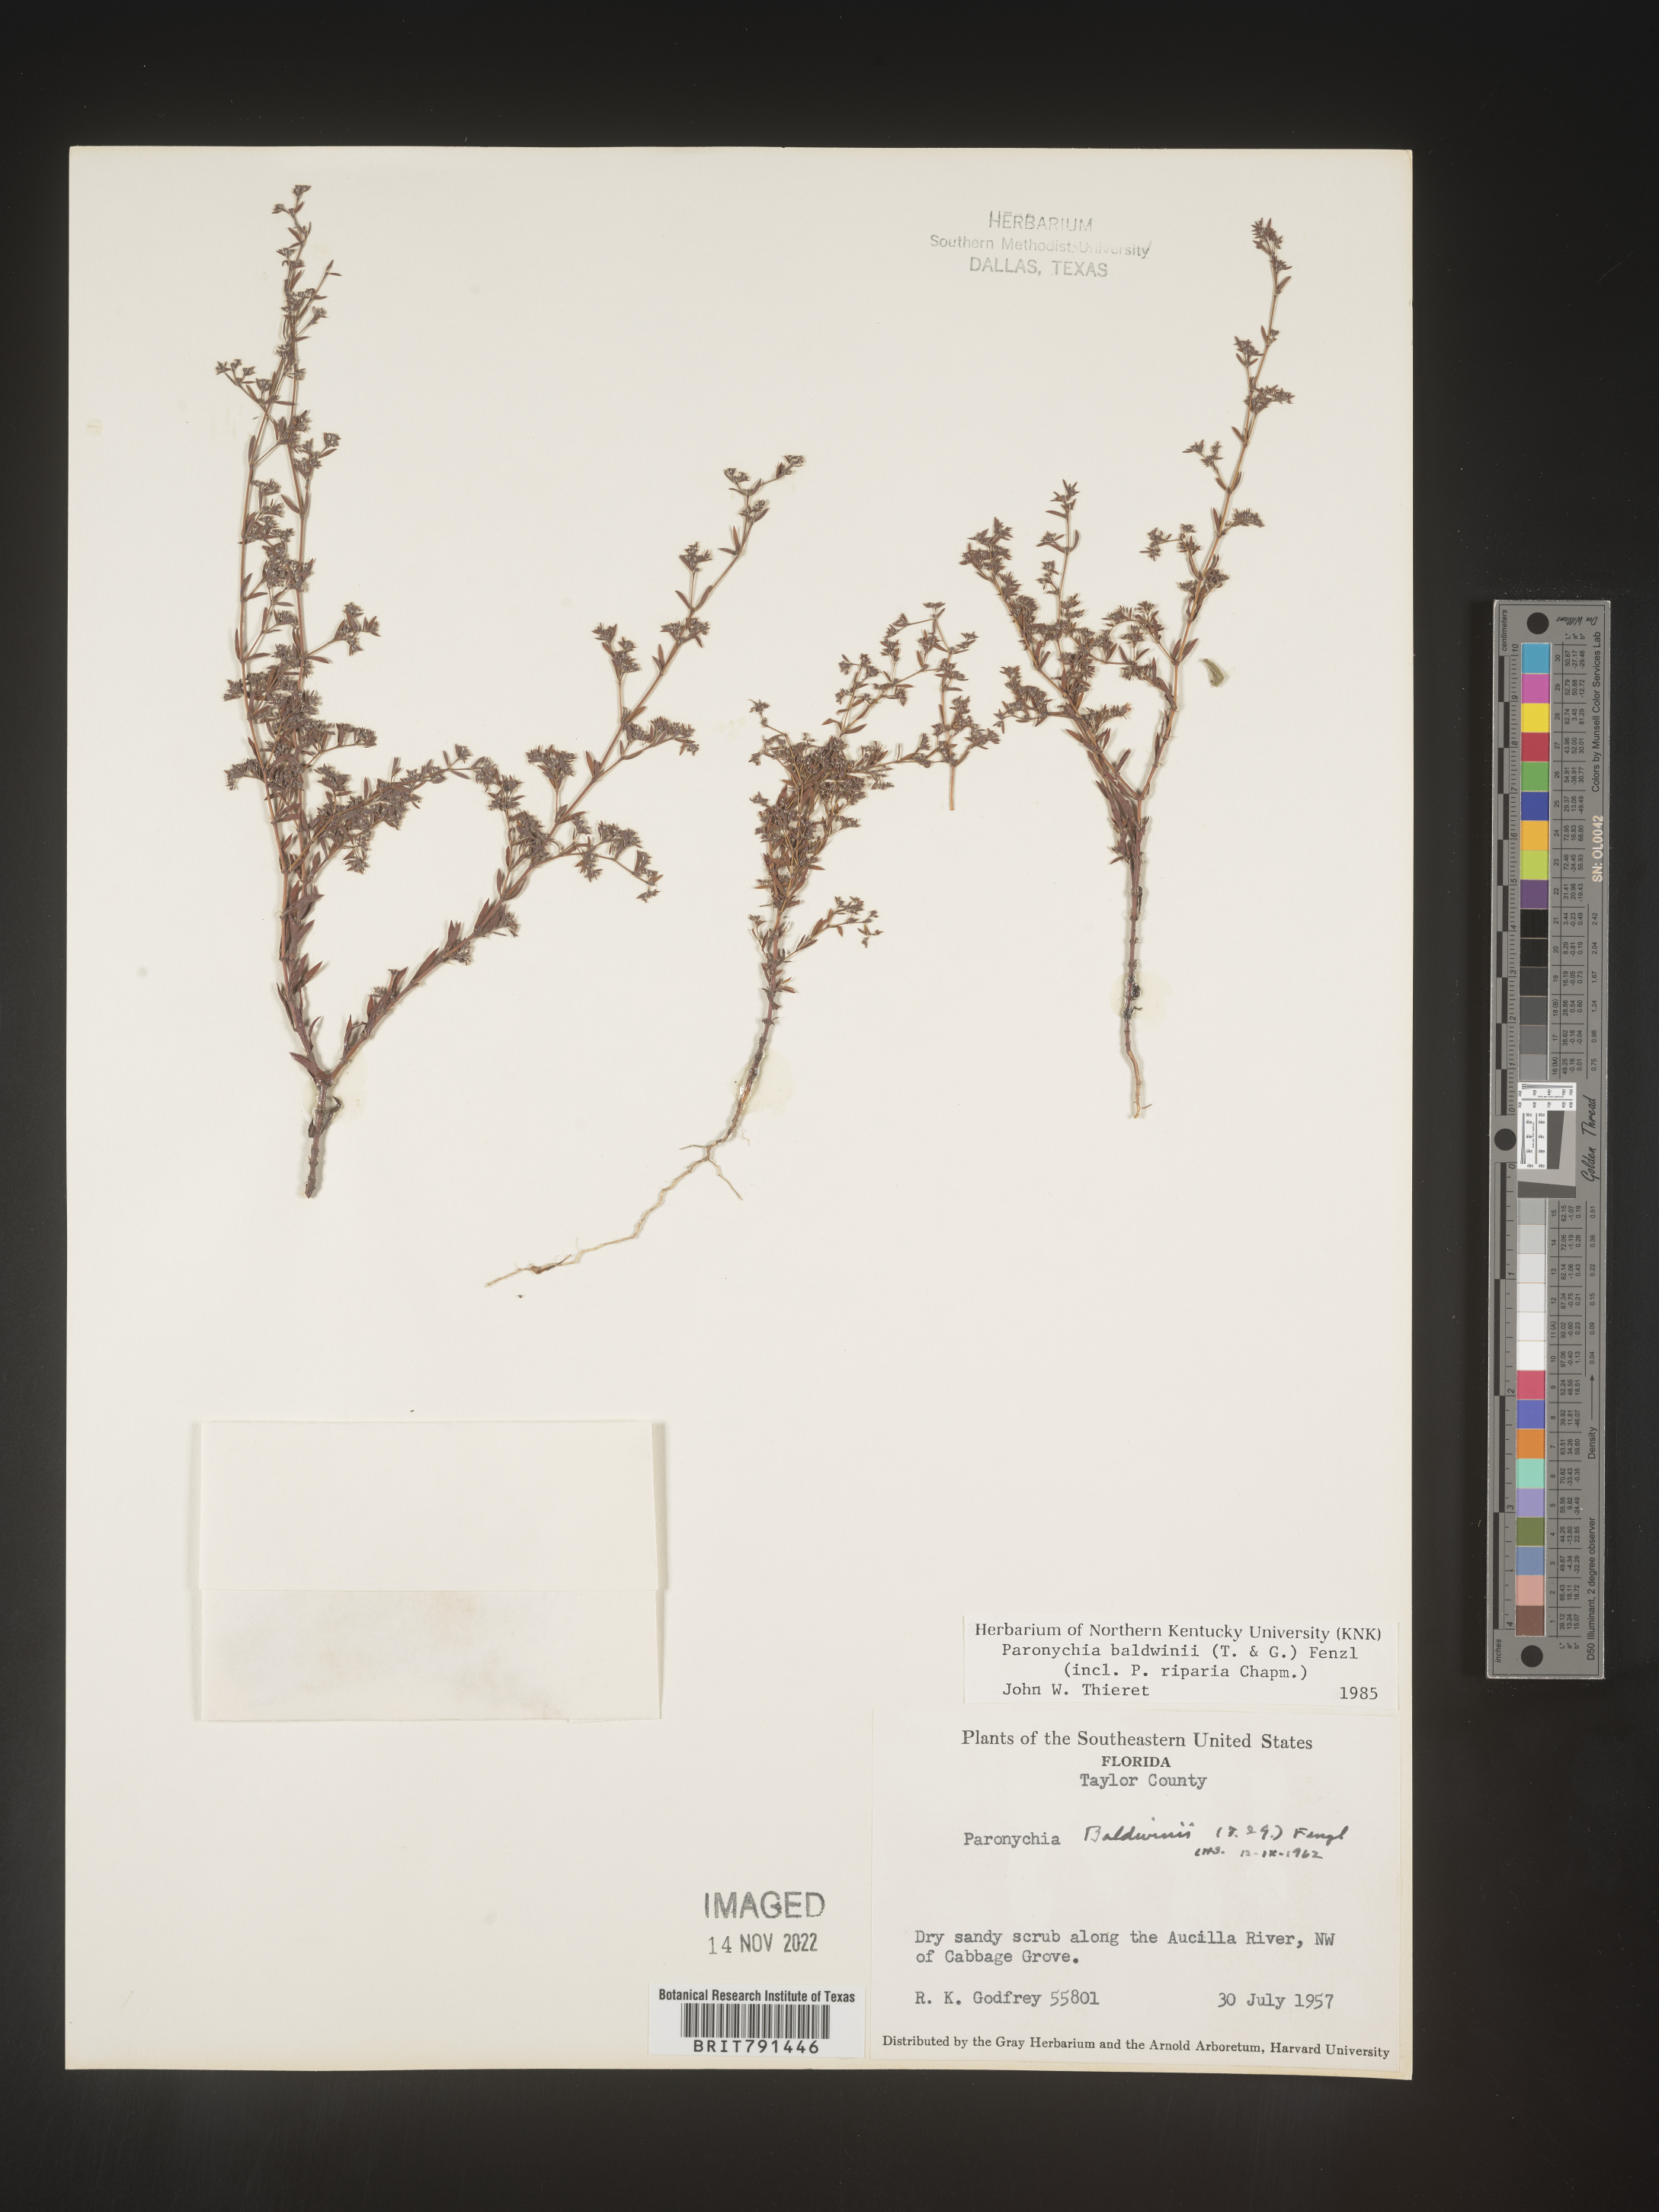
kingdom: Plantae
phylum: Tracheophyta
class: Magnoliopsida
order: Caryophyllales
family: Caryophyllaceae
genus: Paronychia
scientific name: Paronychia baldwinii
